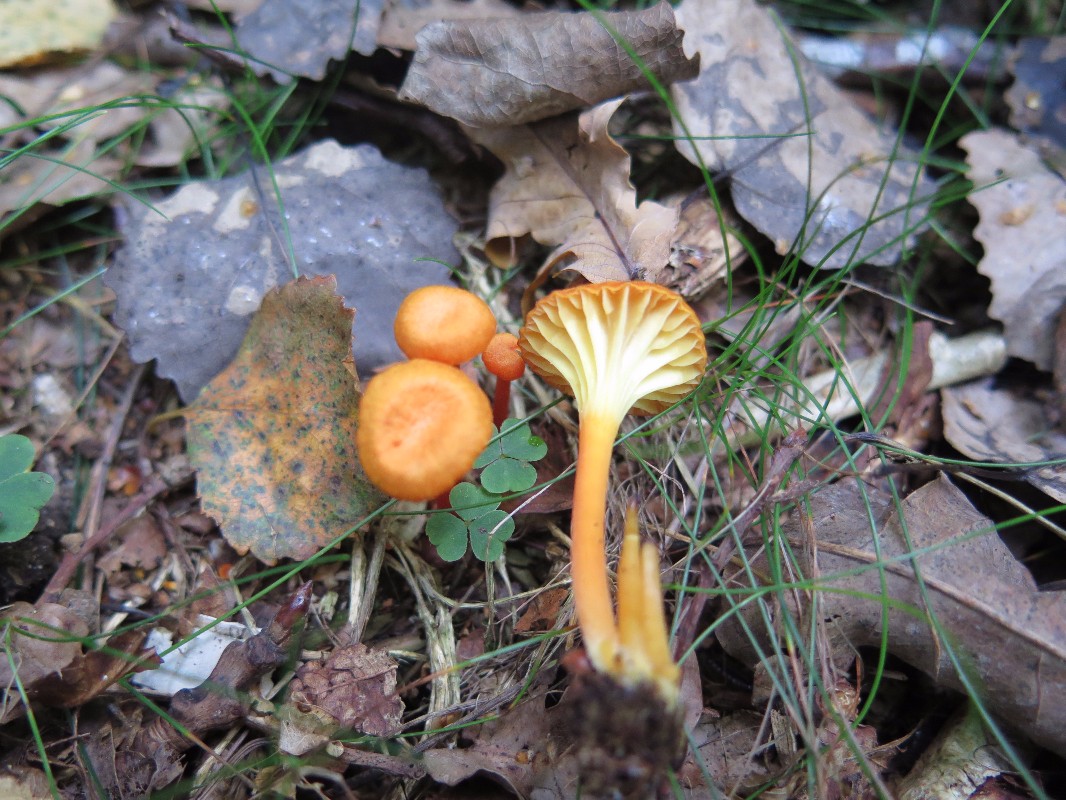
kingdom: Fungi
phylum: Basidiomycota
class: Agaricomycetes
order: Agaricales
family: Hygrophoraceae
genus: Hygrocybe
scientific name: Hygrocybe cantharellus
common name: kantarel-vokshat
